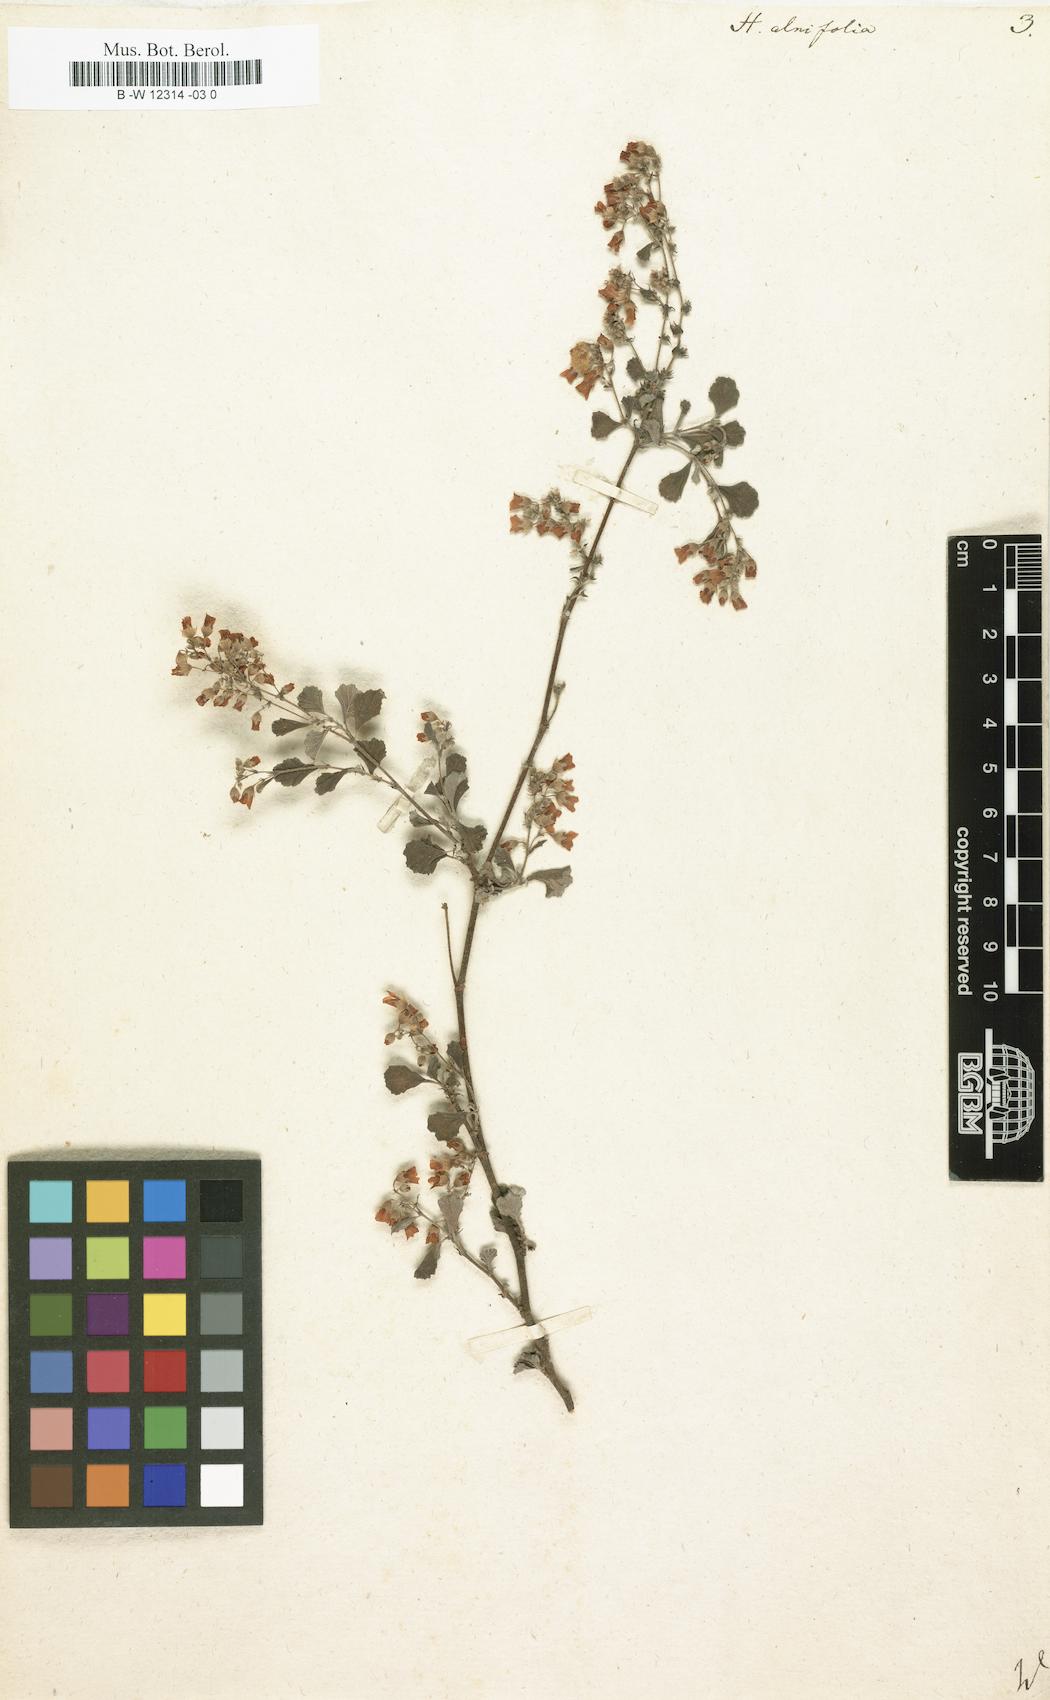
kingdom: Plantae
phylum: Tracheophyta
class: Magnoliopsida
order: Malvales
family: Malvaceae
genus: Hermannia
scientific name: Hermannia alnifolia
